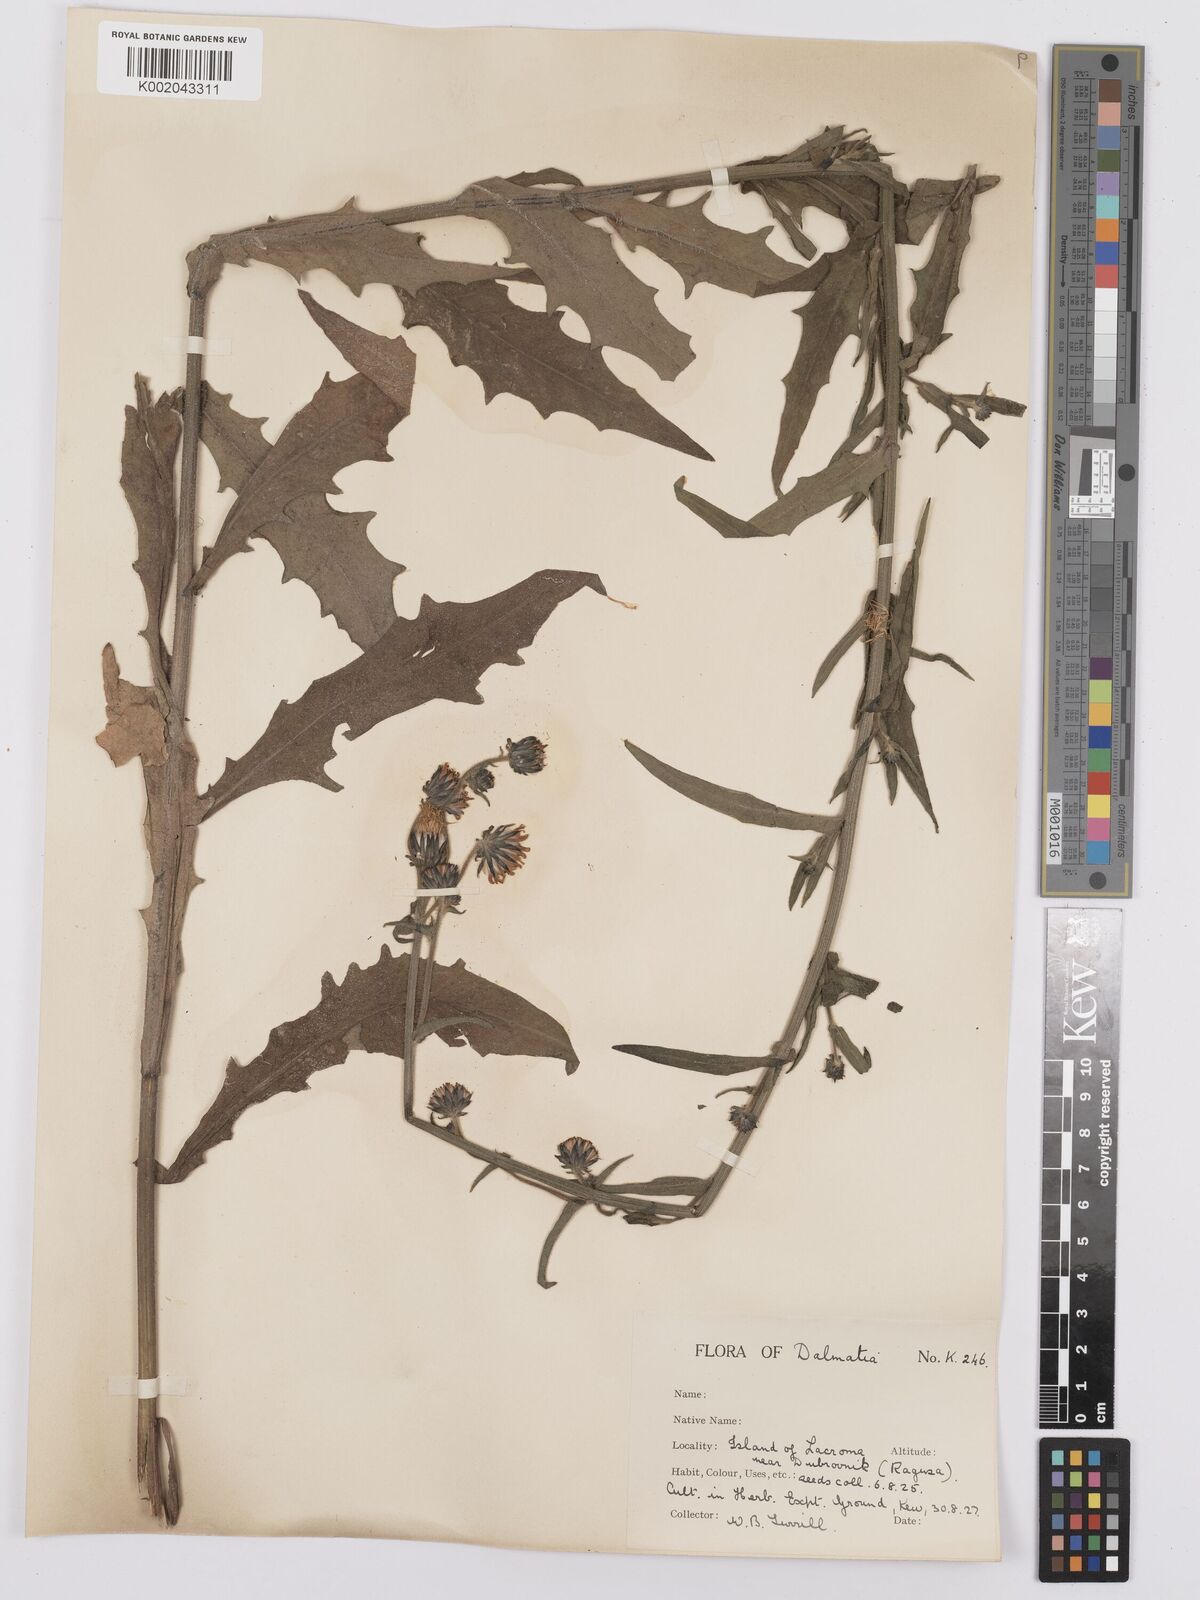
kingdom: Plantae
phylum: Tracheophyta
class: Magnoliopsida
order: Asterales
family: Asteraceae
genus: Picris
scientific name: Picris hieracioides
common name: Hawkweed oxtongue
